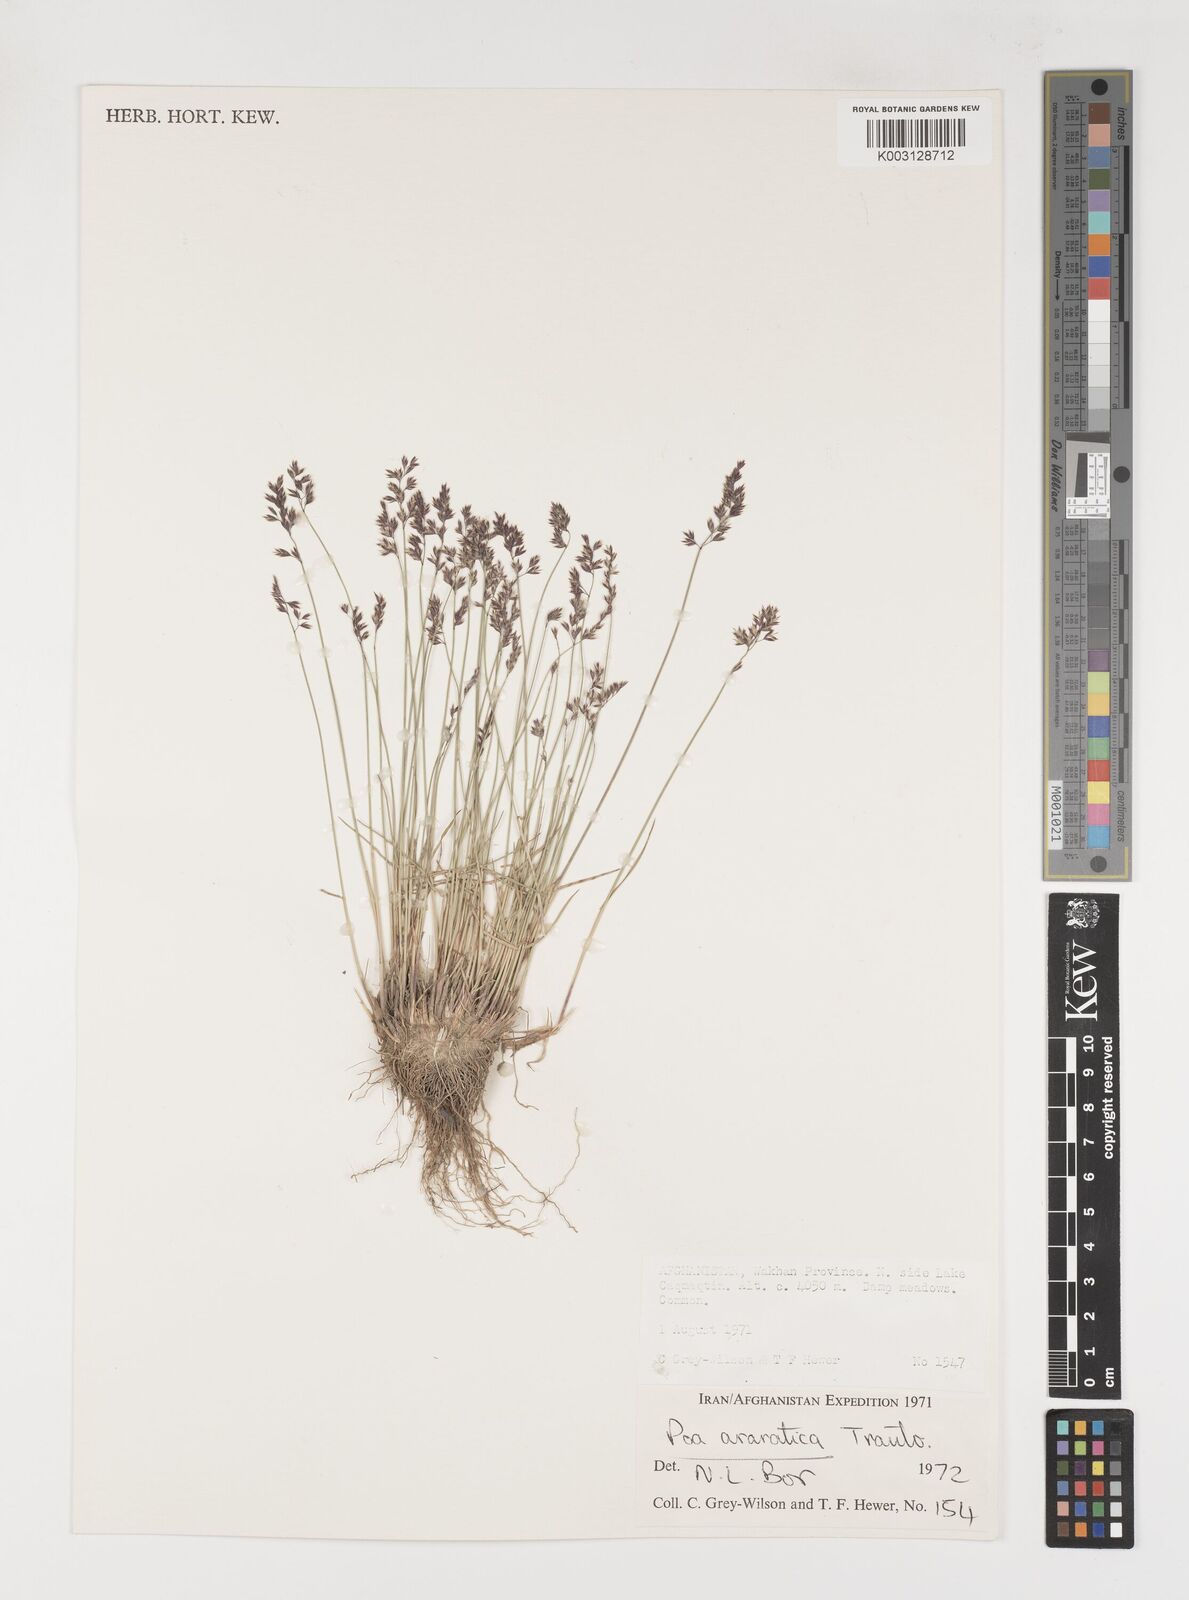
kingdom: Plantae
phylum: Tracheophyta
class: Liliopsida
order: Poales
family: Poaceae
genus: Poa
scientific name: Poa araratica
